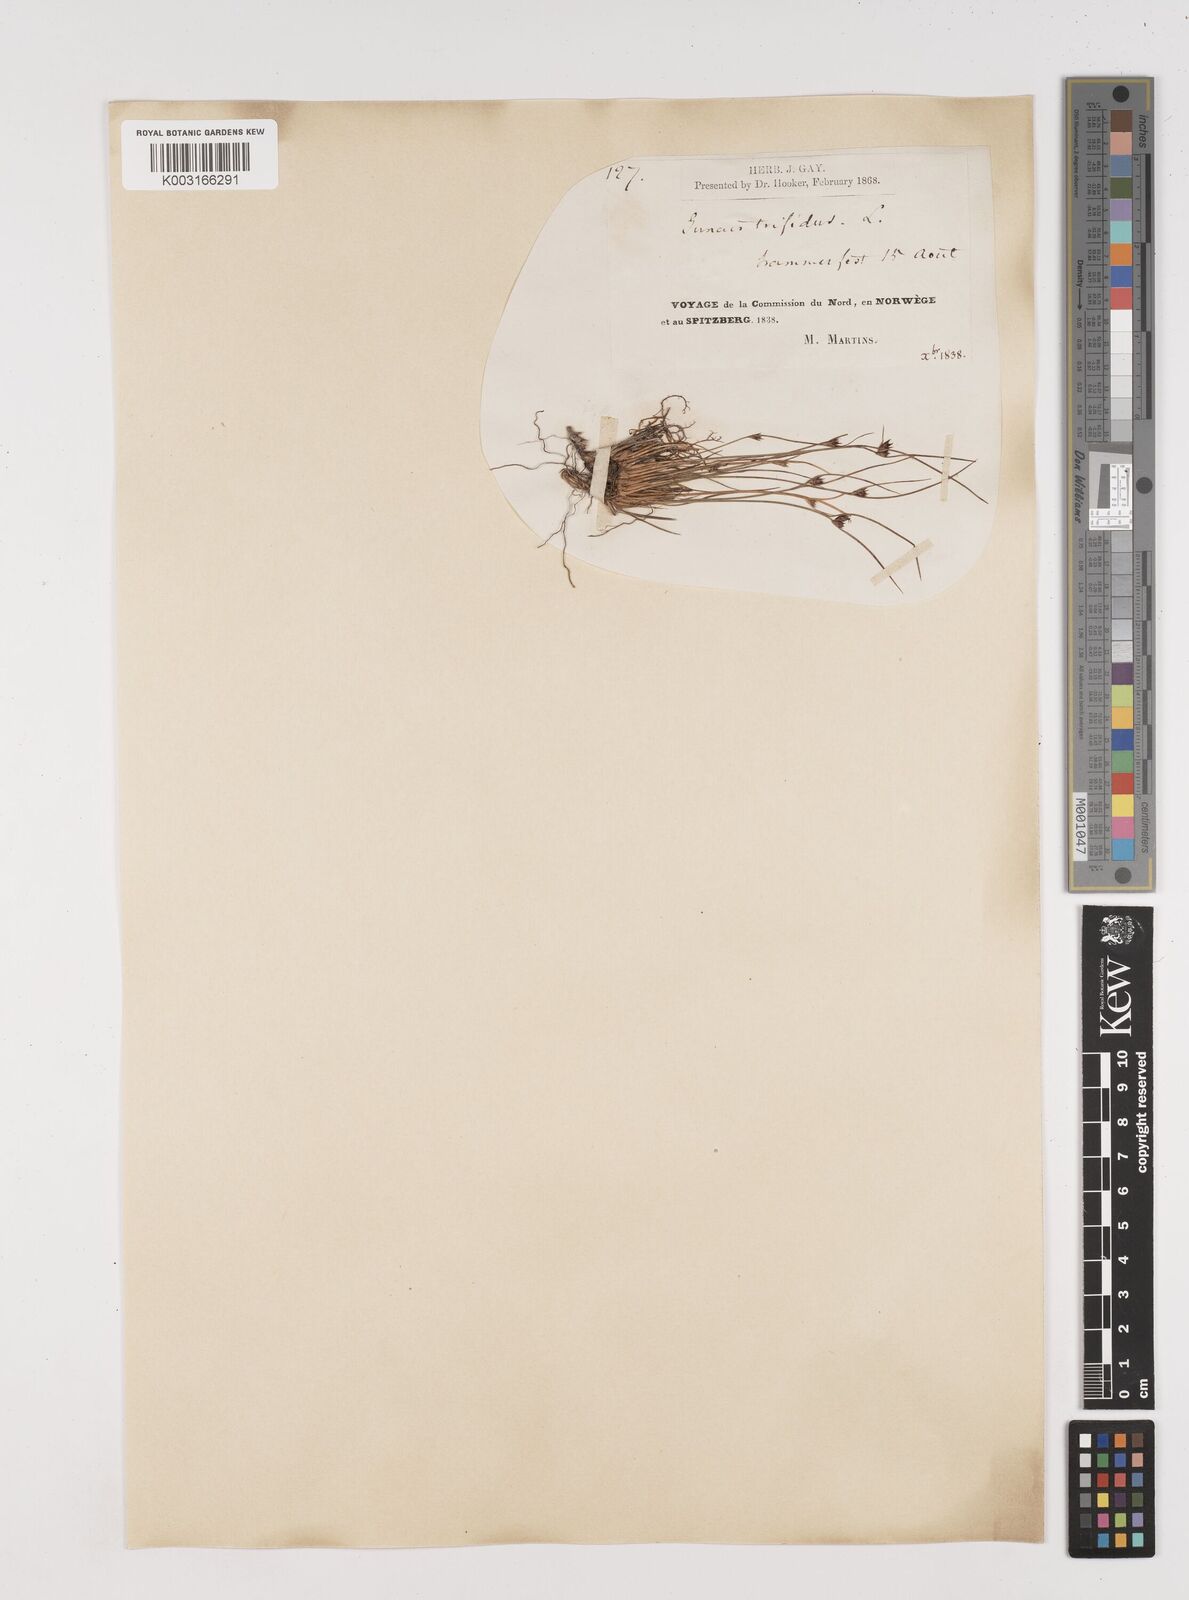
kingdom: Plantae
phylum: Tracheophyta
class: Liliopsida
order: Poales
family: Juncaceae
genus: Oreojuncus
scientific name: Oreojuncus trifidus
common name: Highland rush
